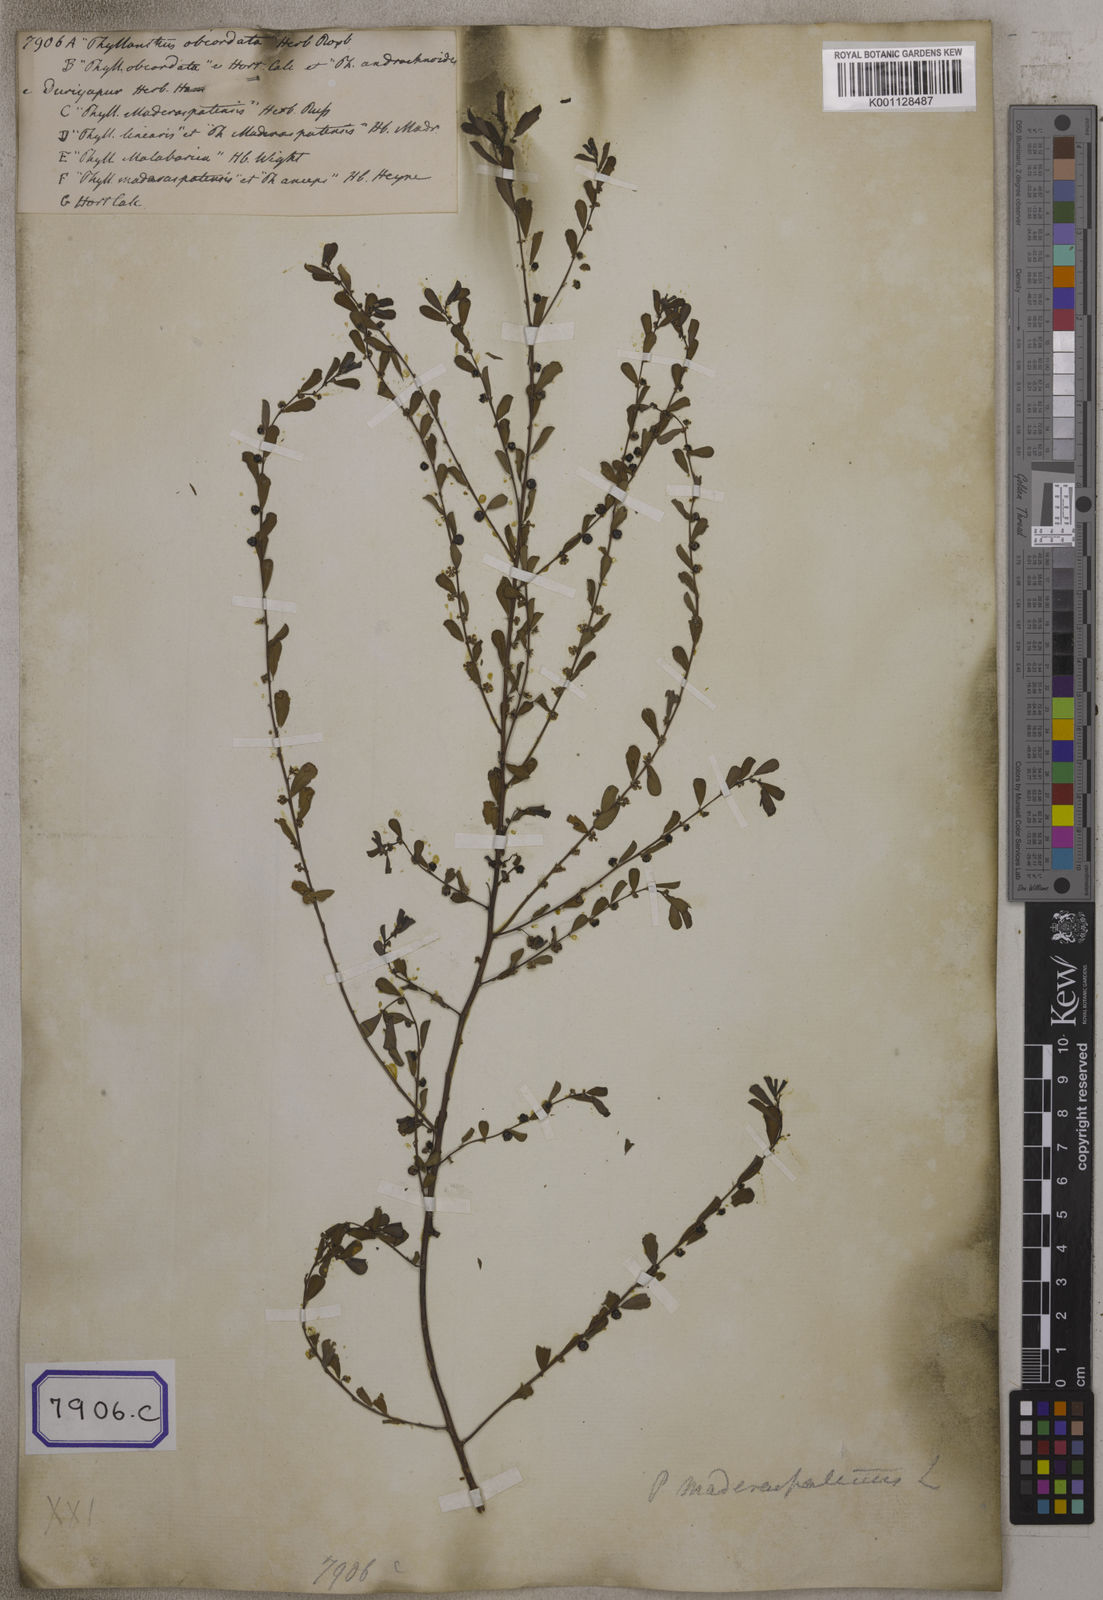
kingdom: Plantae
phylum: Tracheophyta
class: Magnoliopsida
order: Malpighiales
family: Euphorbiaceae
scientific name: Euphorbiaceae
